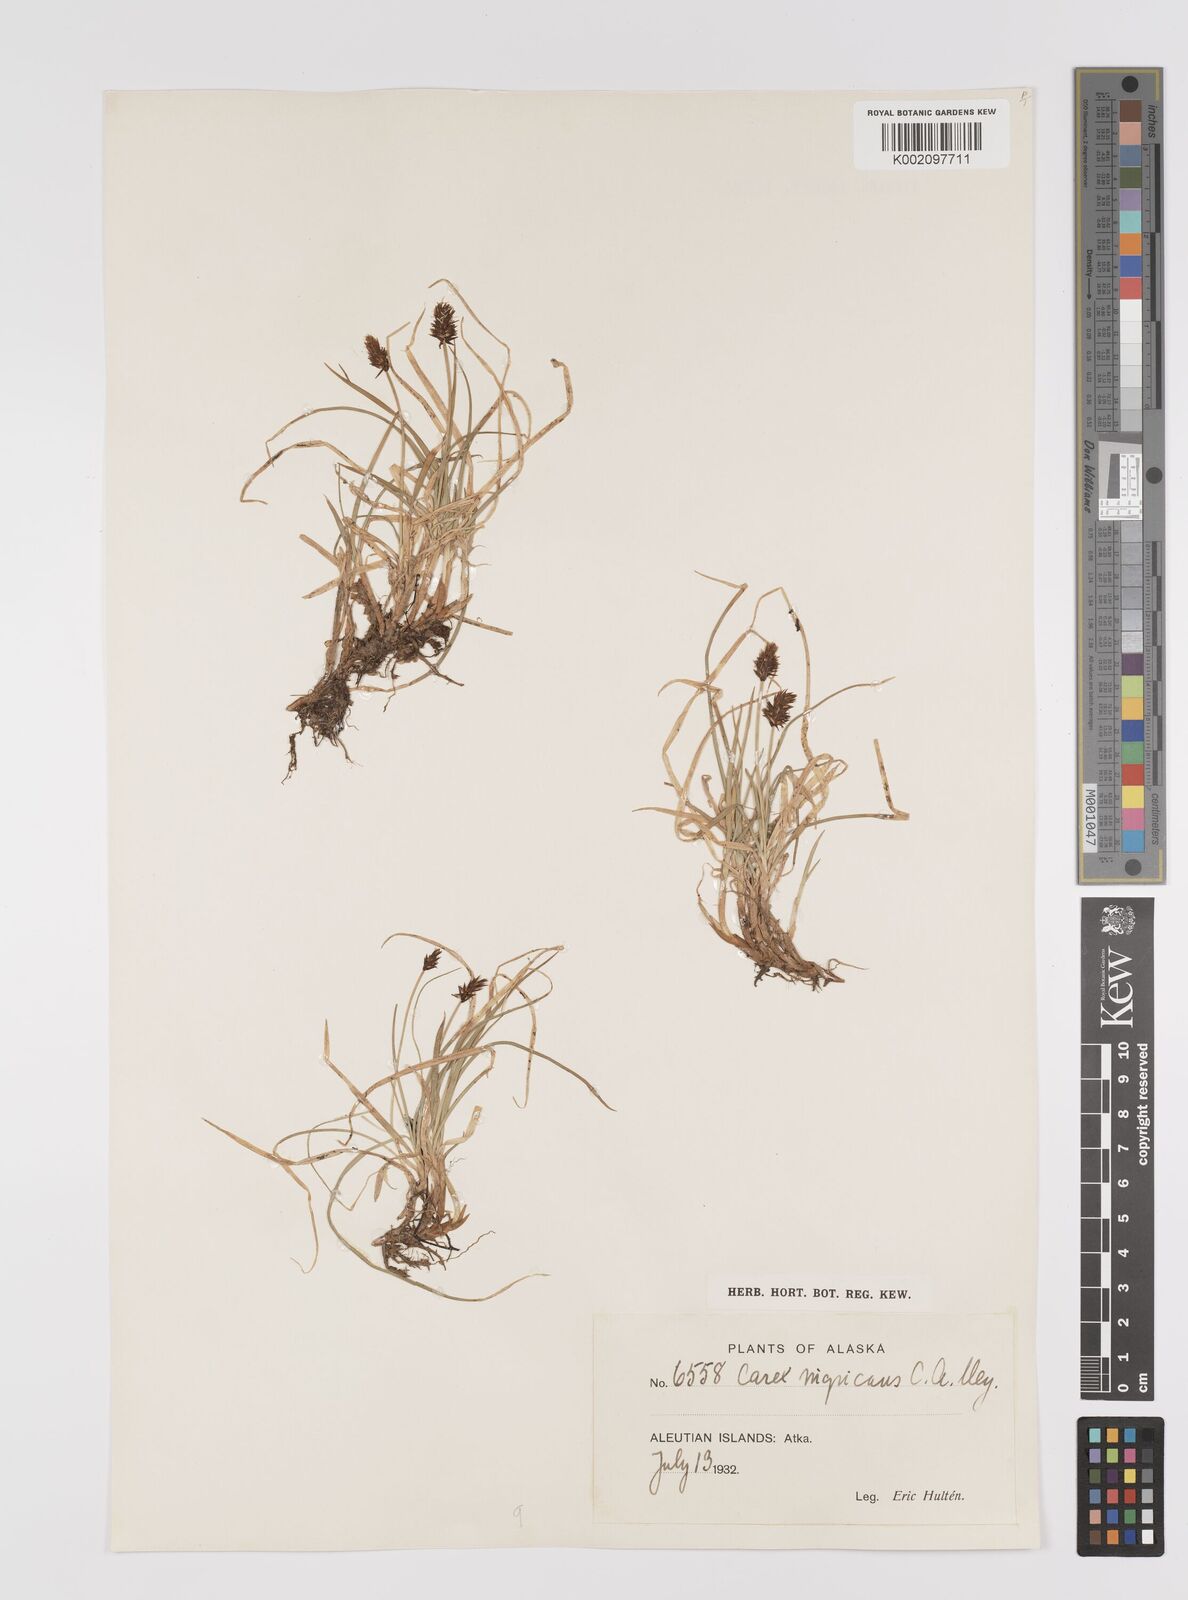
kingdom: Plantae
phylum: Tracheophyta
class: Liliopsida
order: Poales
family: Cyperaceae
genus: Carex
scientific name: Carex nardina
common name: Nard sedge
